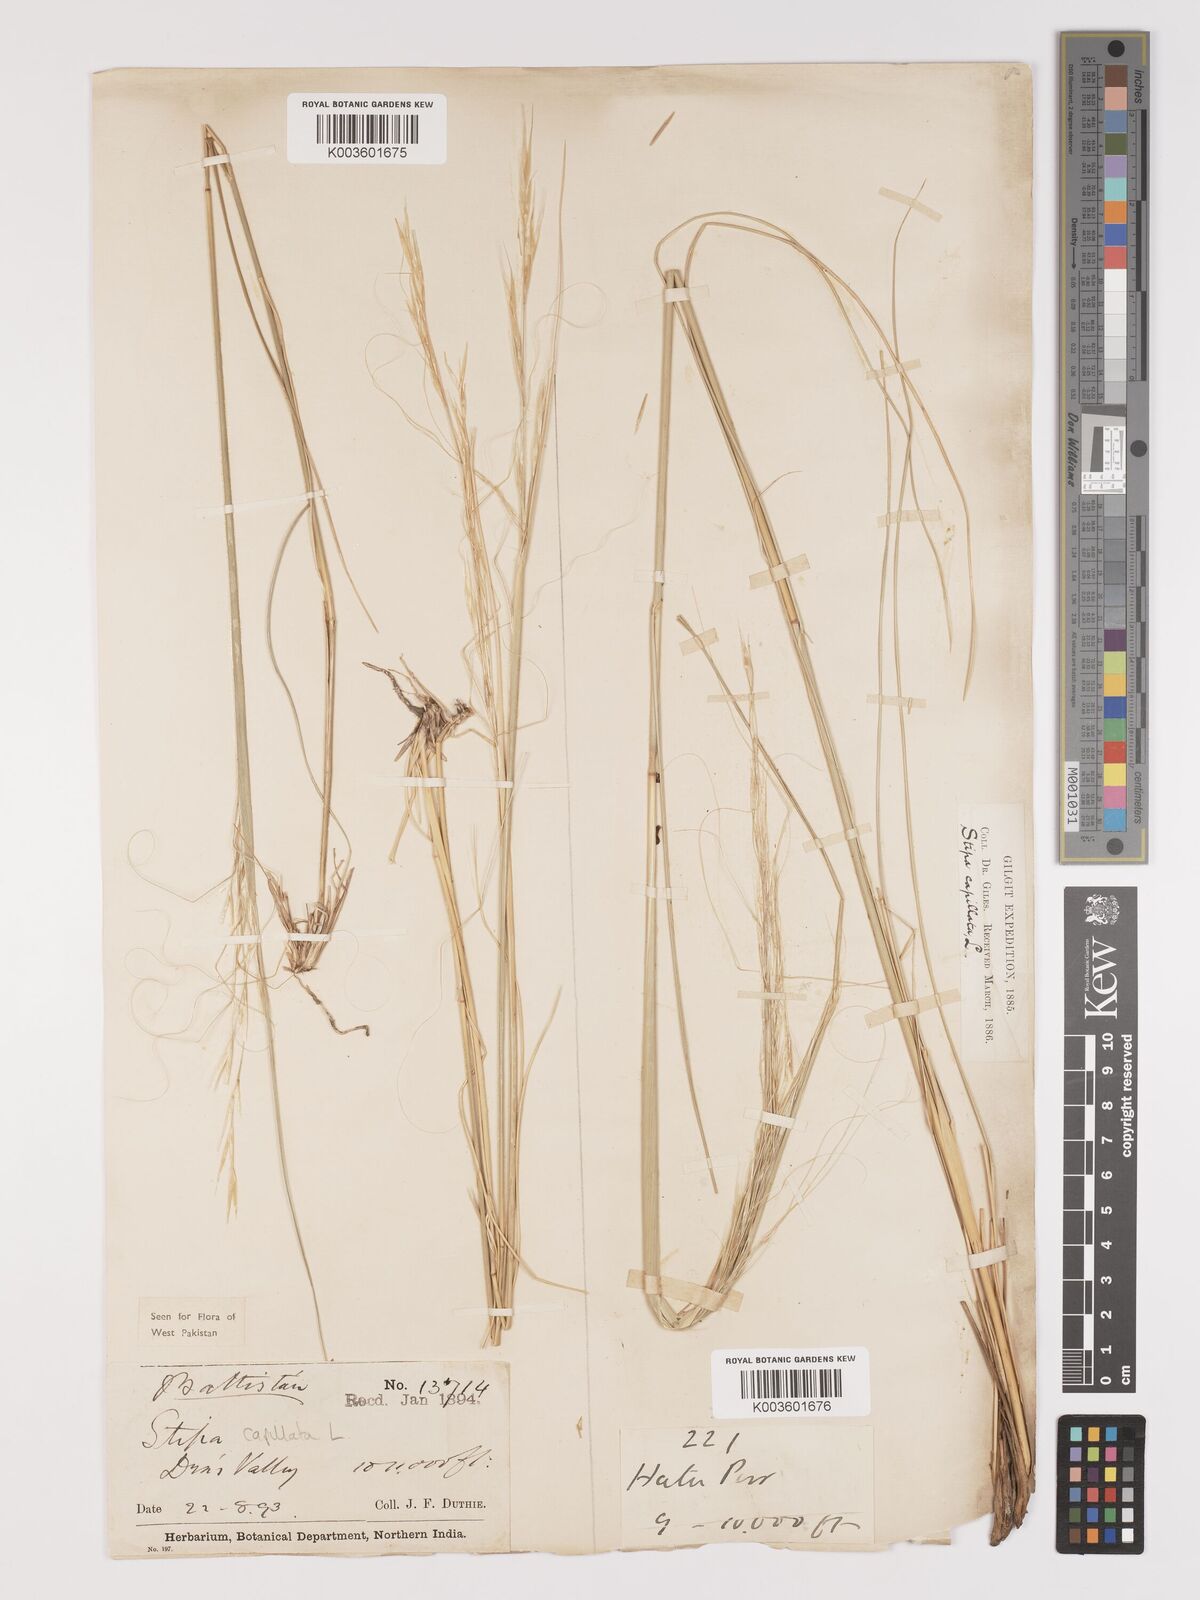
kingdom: Plantae
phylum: Tracheophyta
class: Liliopsida
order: Poales
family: Poaceae
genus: Stipa
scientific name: Stipa capillata
